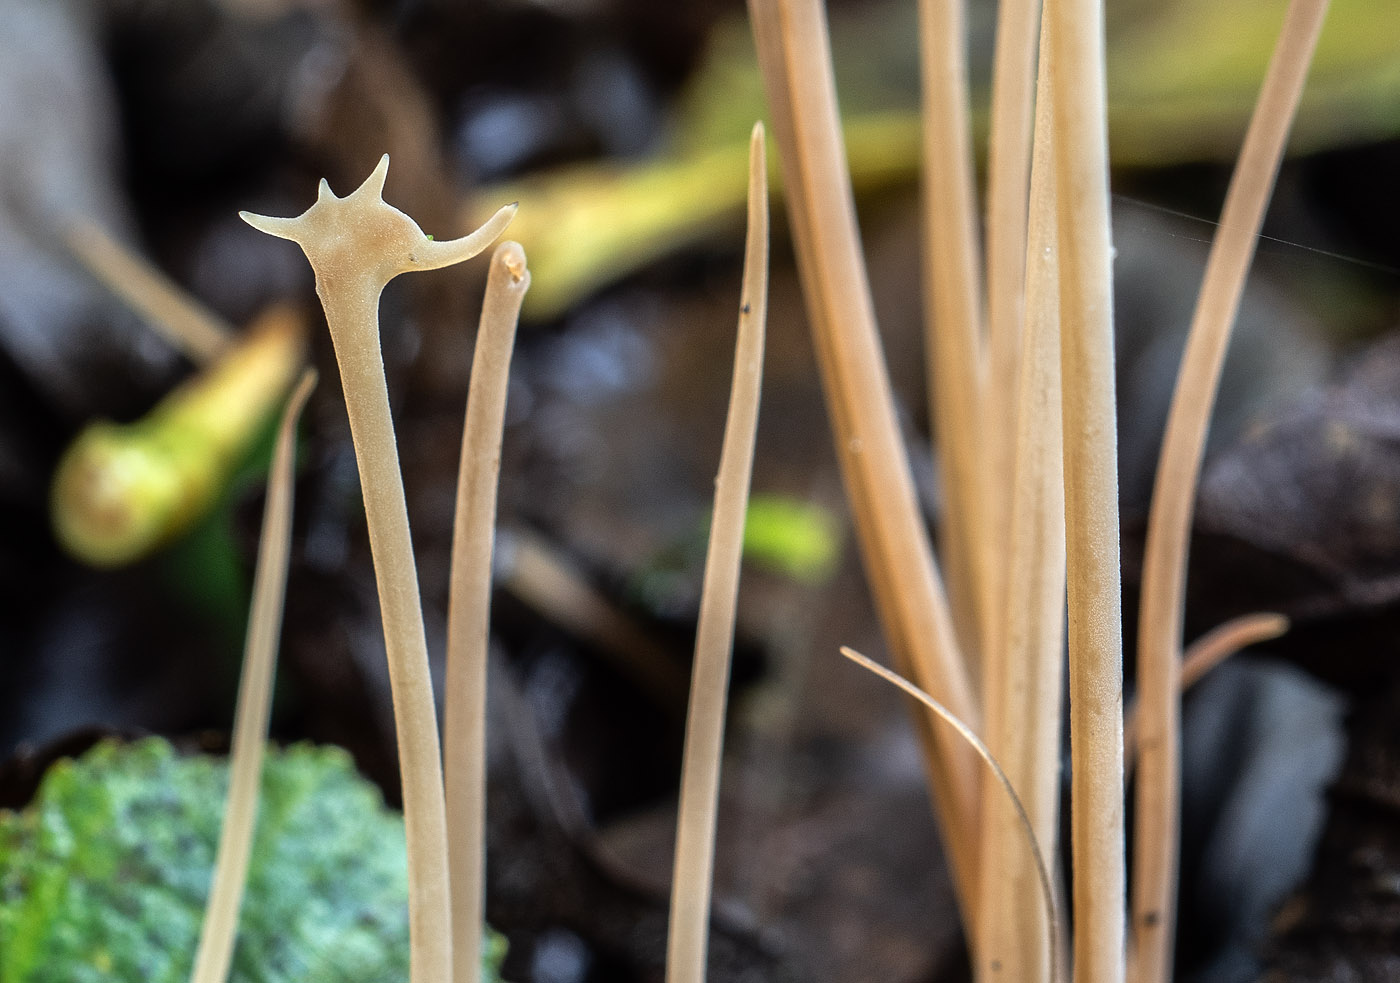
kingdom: Fungi
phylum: Basidiomycota
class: Agaricomycetes
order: Agaricales
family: Typhulaceae
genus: Typhula
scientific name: Typhula juncea
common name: trådagtig rørkølle
